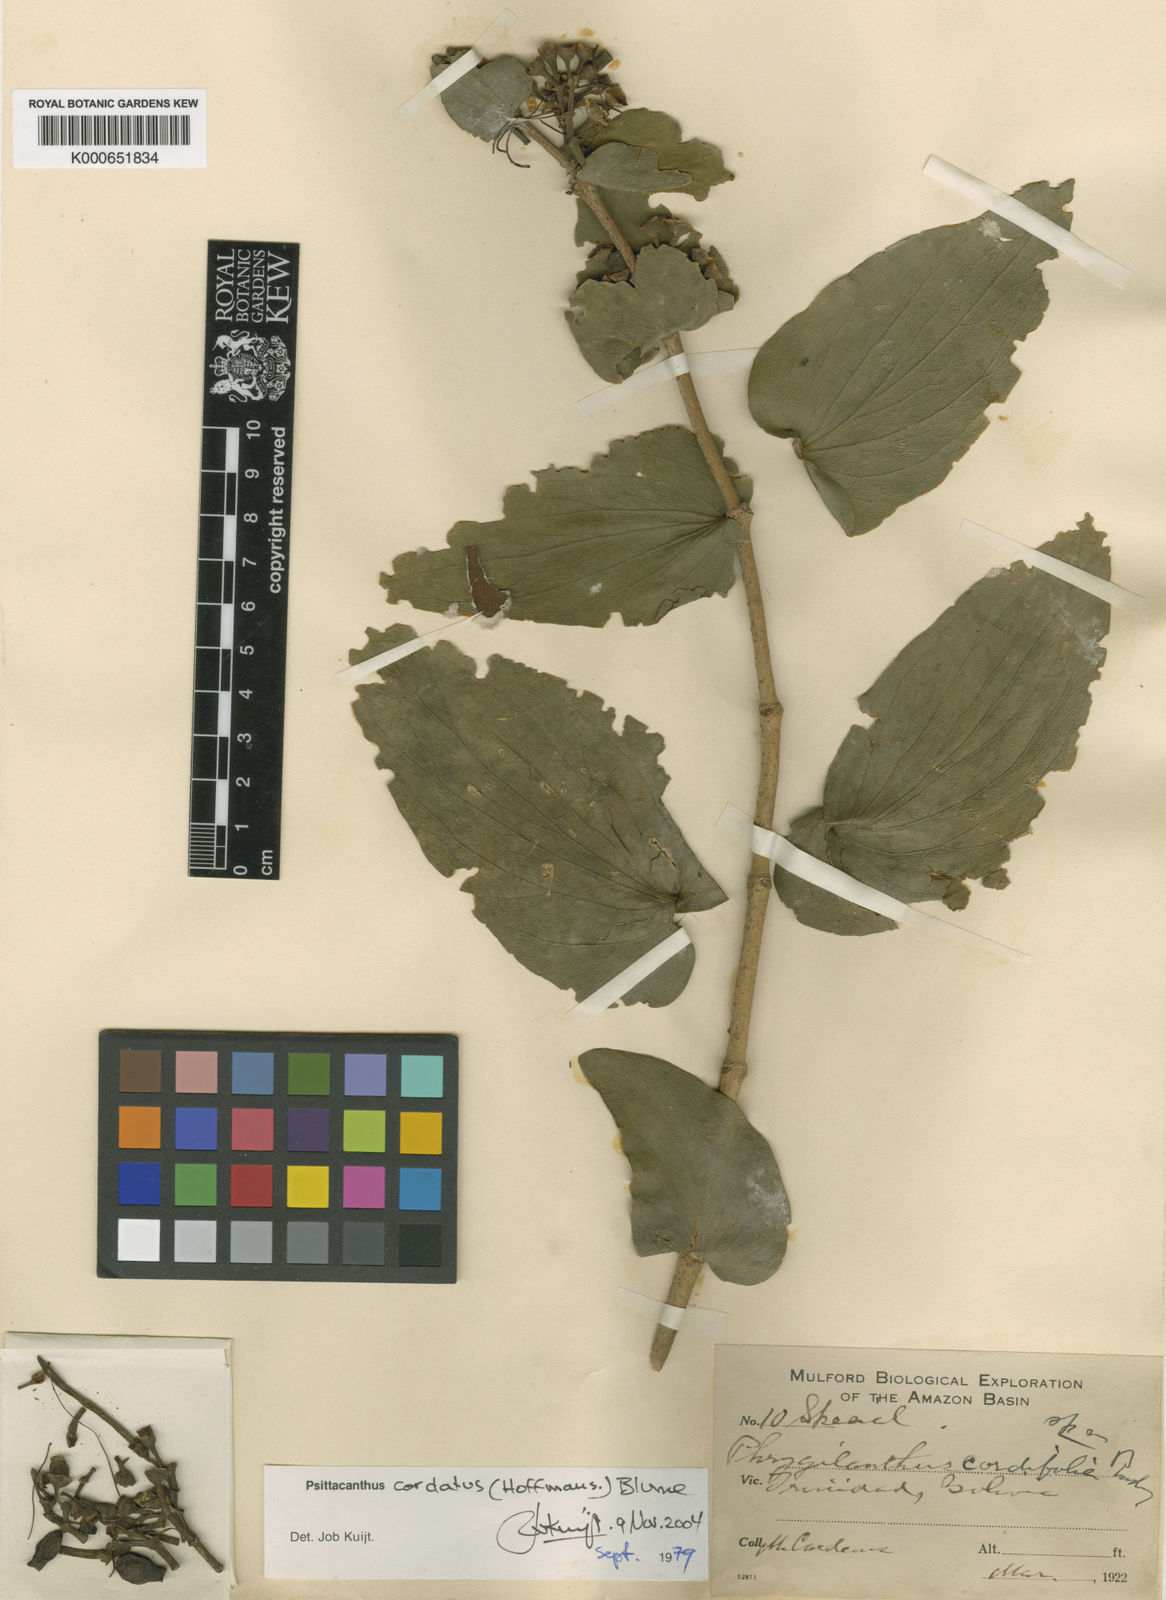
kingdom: Plantae
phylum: Tracheophyta
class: Magnoliopsida
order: Santalales
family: Loranthaceae
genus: Psittacanthus
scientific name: Psittacanthus
